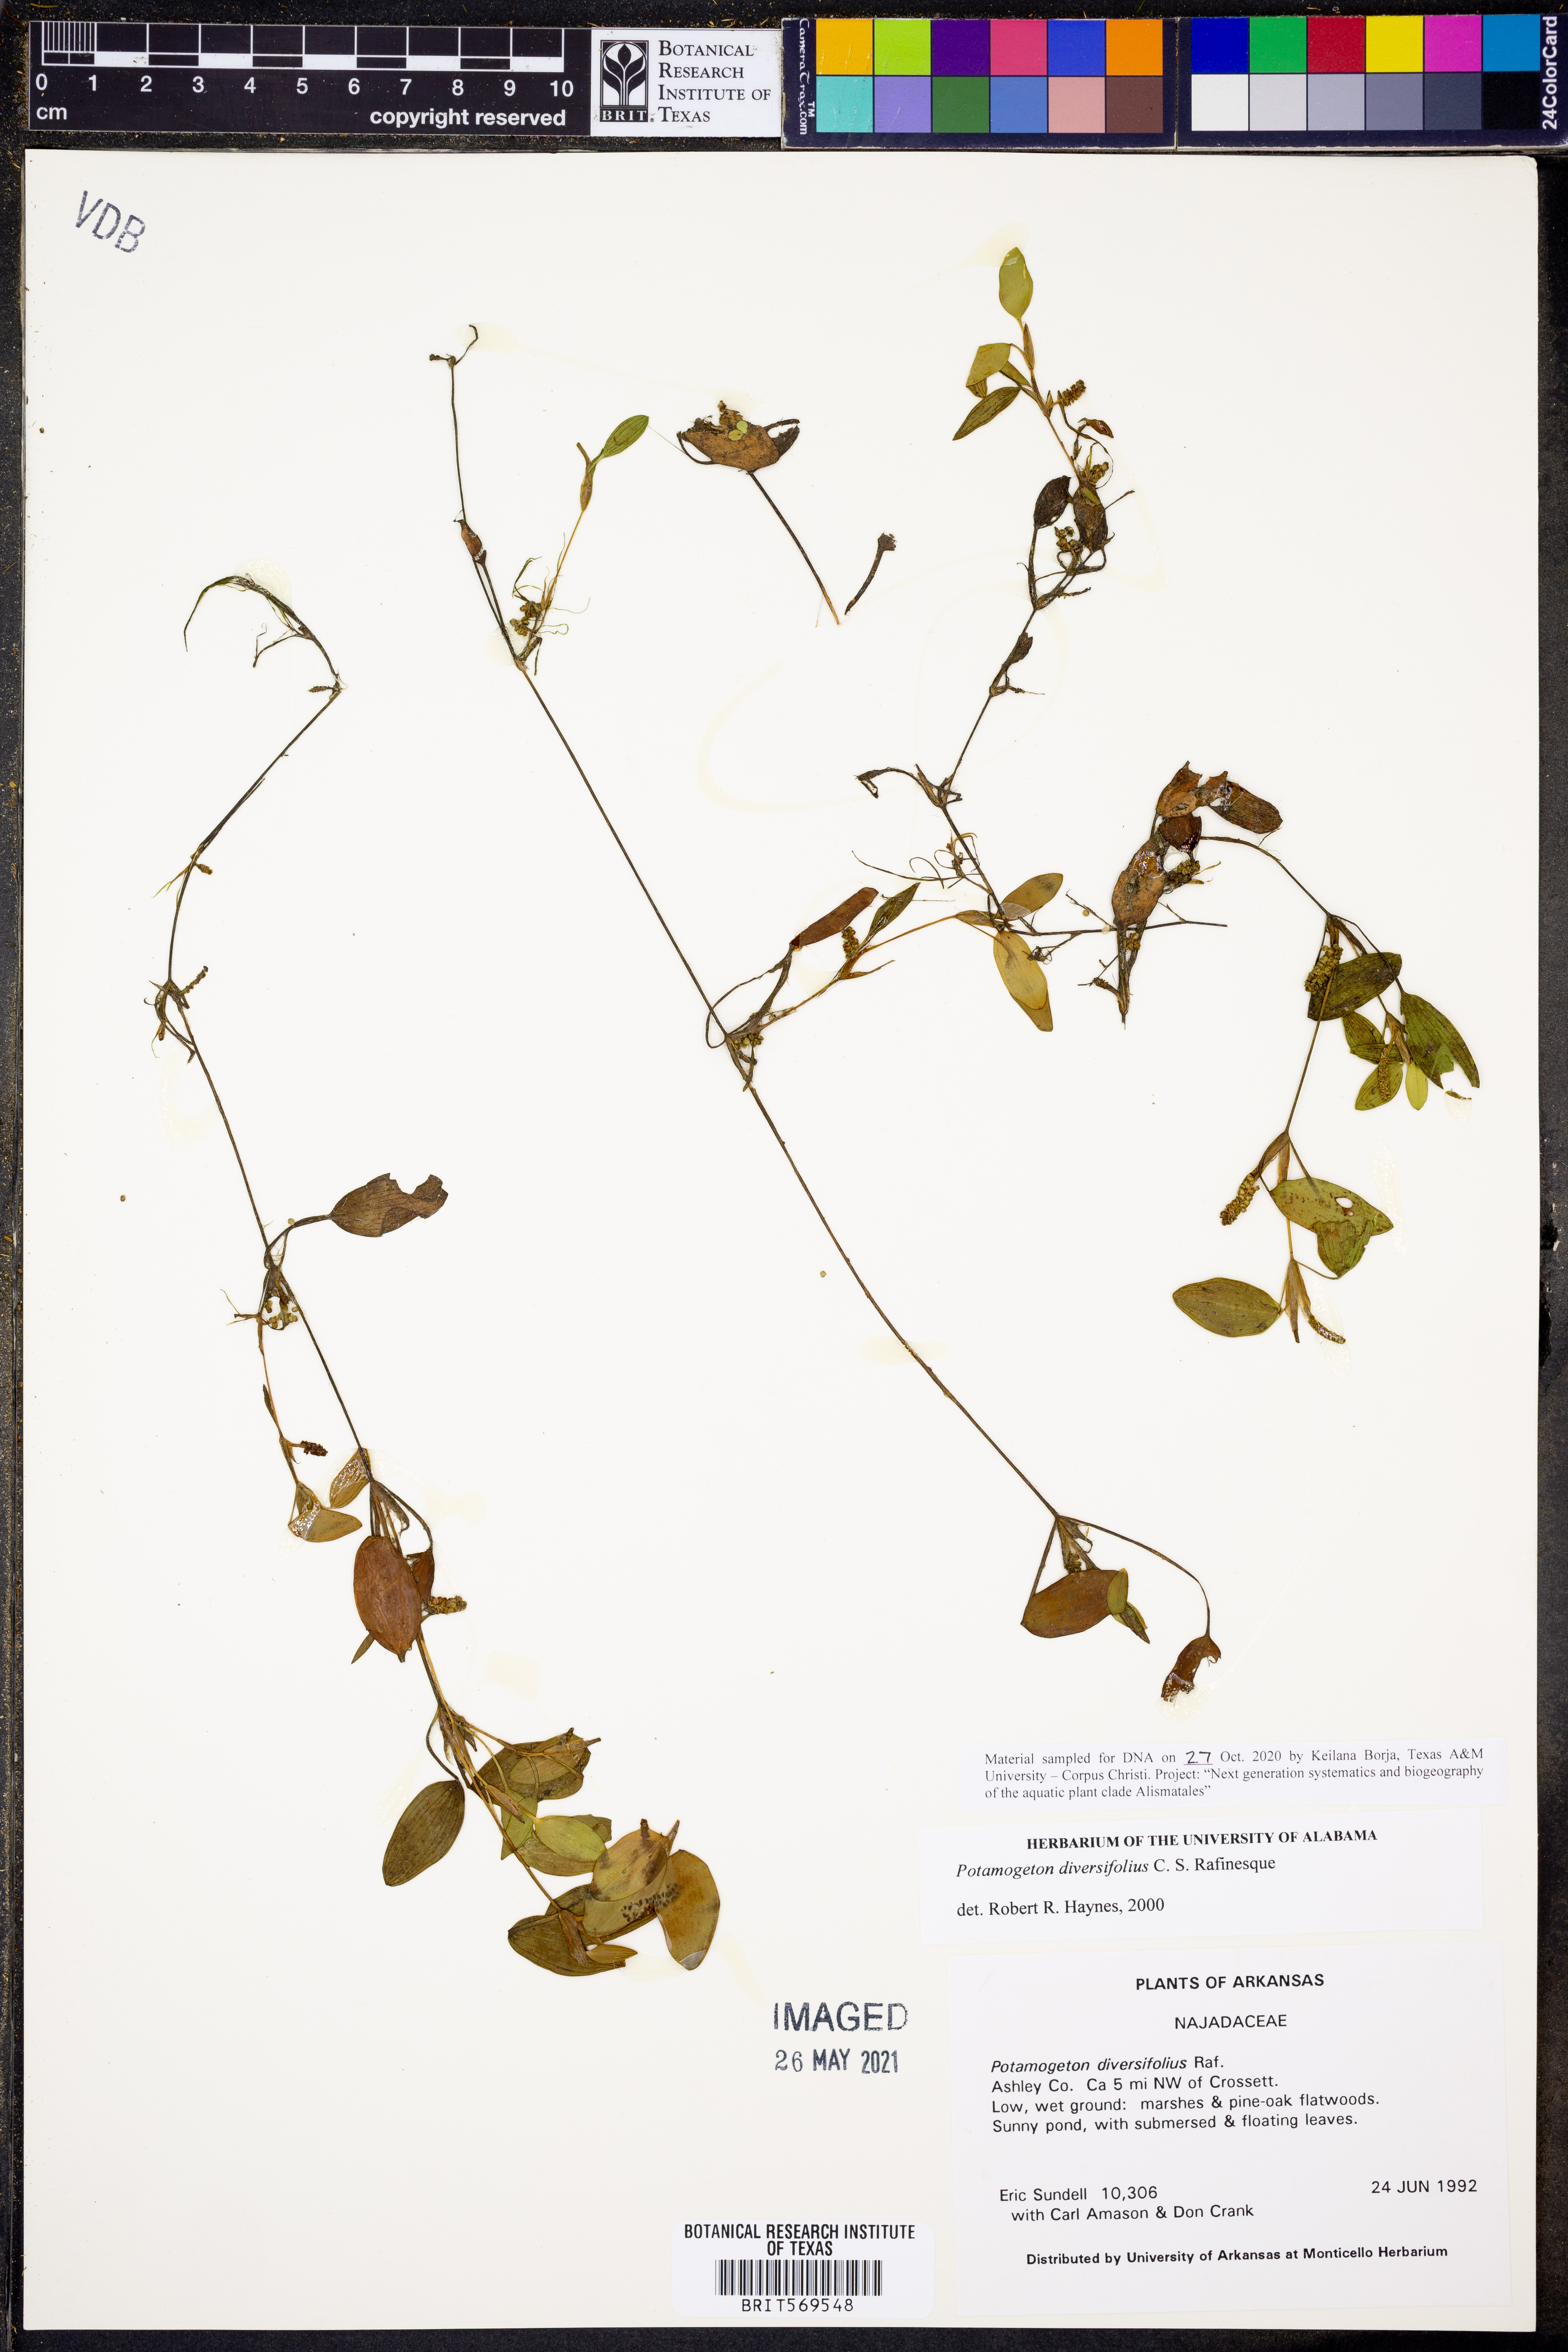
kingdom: Plantae
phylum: Tracheophyta
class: Liliopsida
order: Alismatales
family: Potamogetonaceae
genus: Potamogeton
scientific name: Potamogeton diversifolius
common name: Water-thread pondweed
